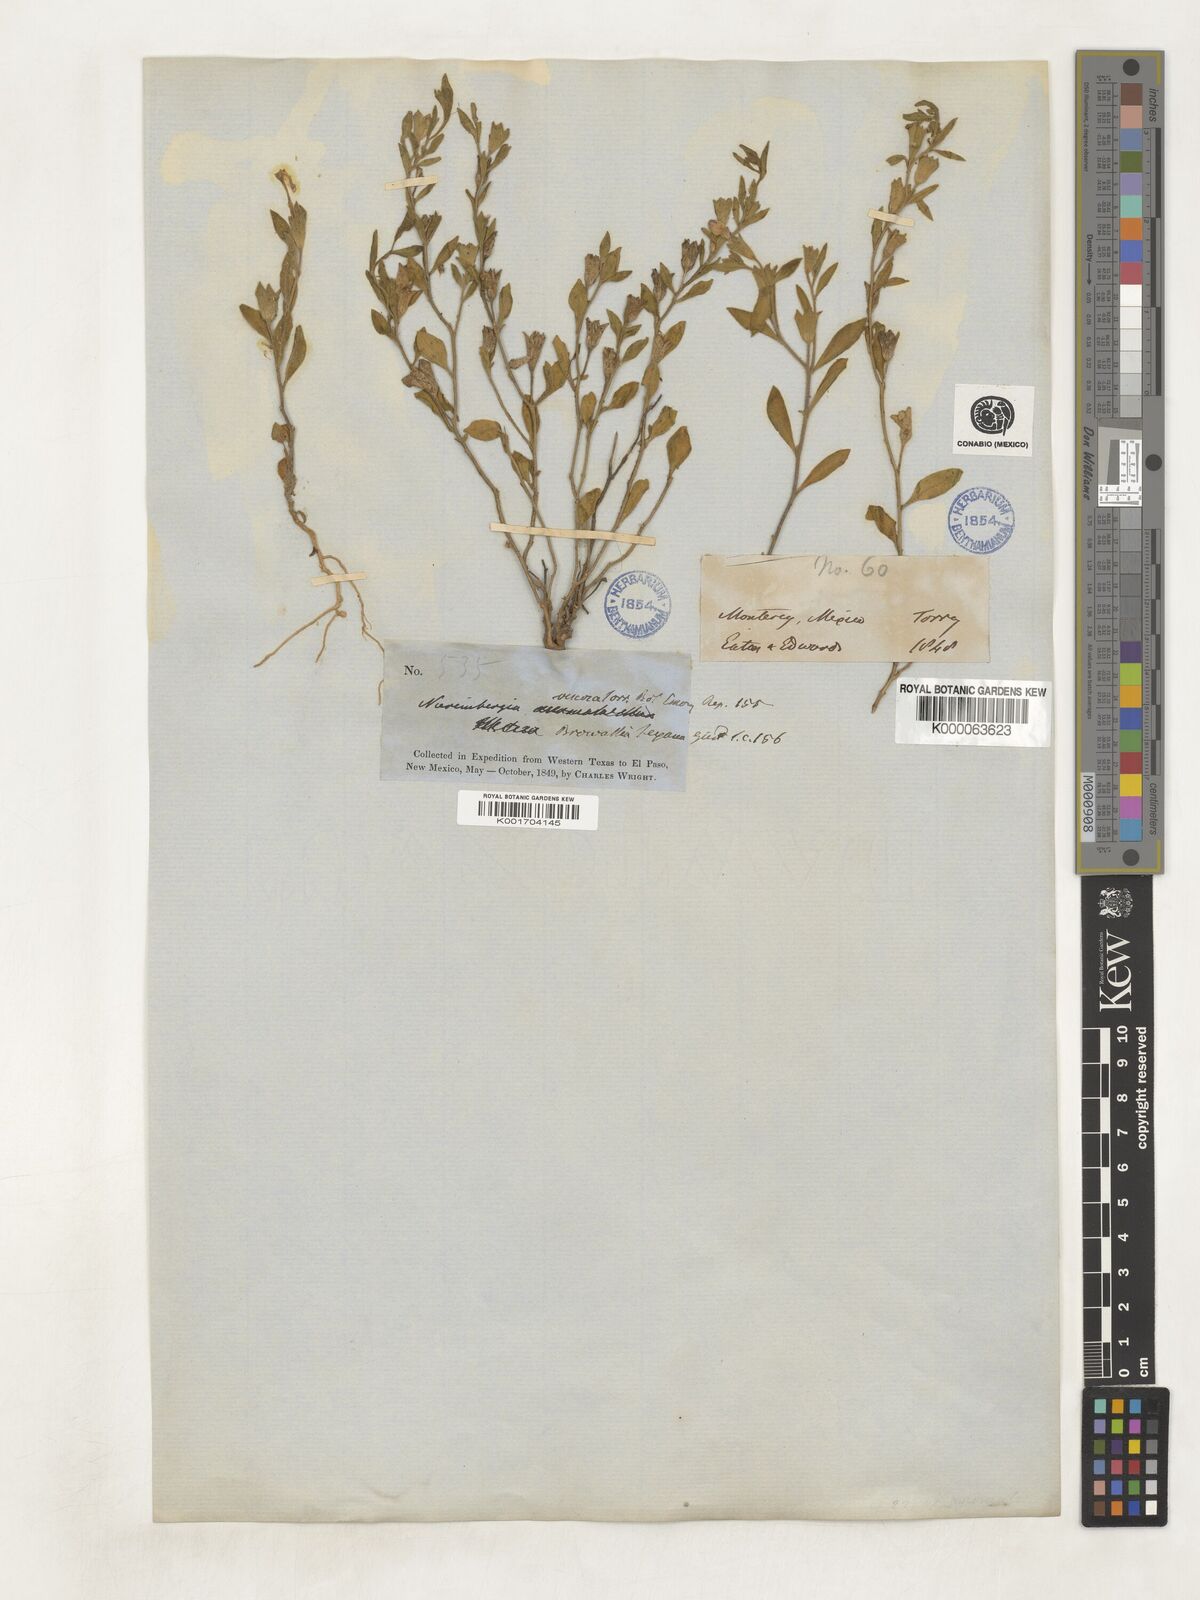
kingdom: Plantae
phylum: Tracheophyta
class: Magnoliopsida
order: Solanales
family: Solanaceae
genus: Hunzikeria
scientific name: Hunzikeria texana
